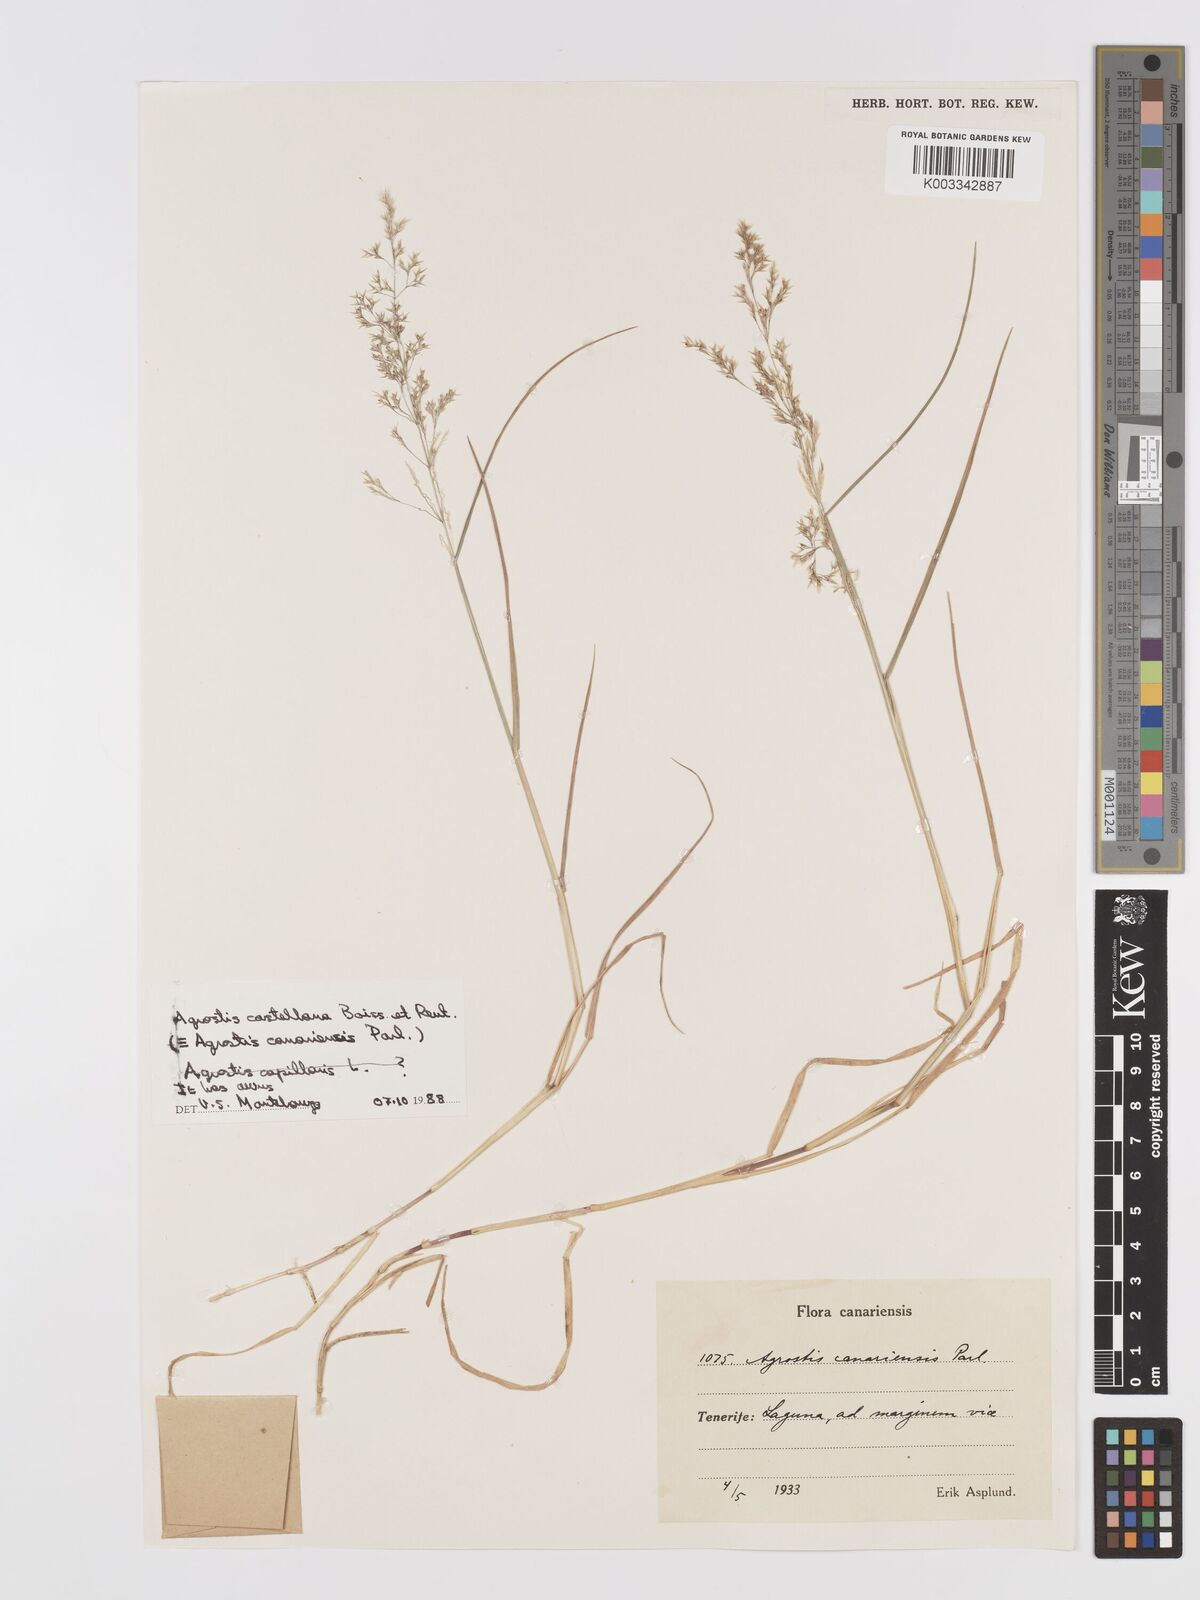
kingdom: Plantae
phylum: Tracheophyta
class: Liliopsida
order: Poales
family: Poaceae
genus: Agrostis
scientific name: Agrostis castellana
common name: Highland bent
